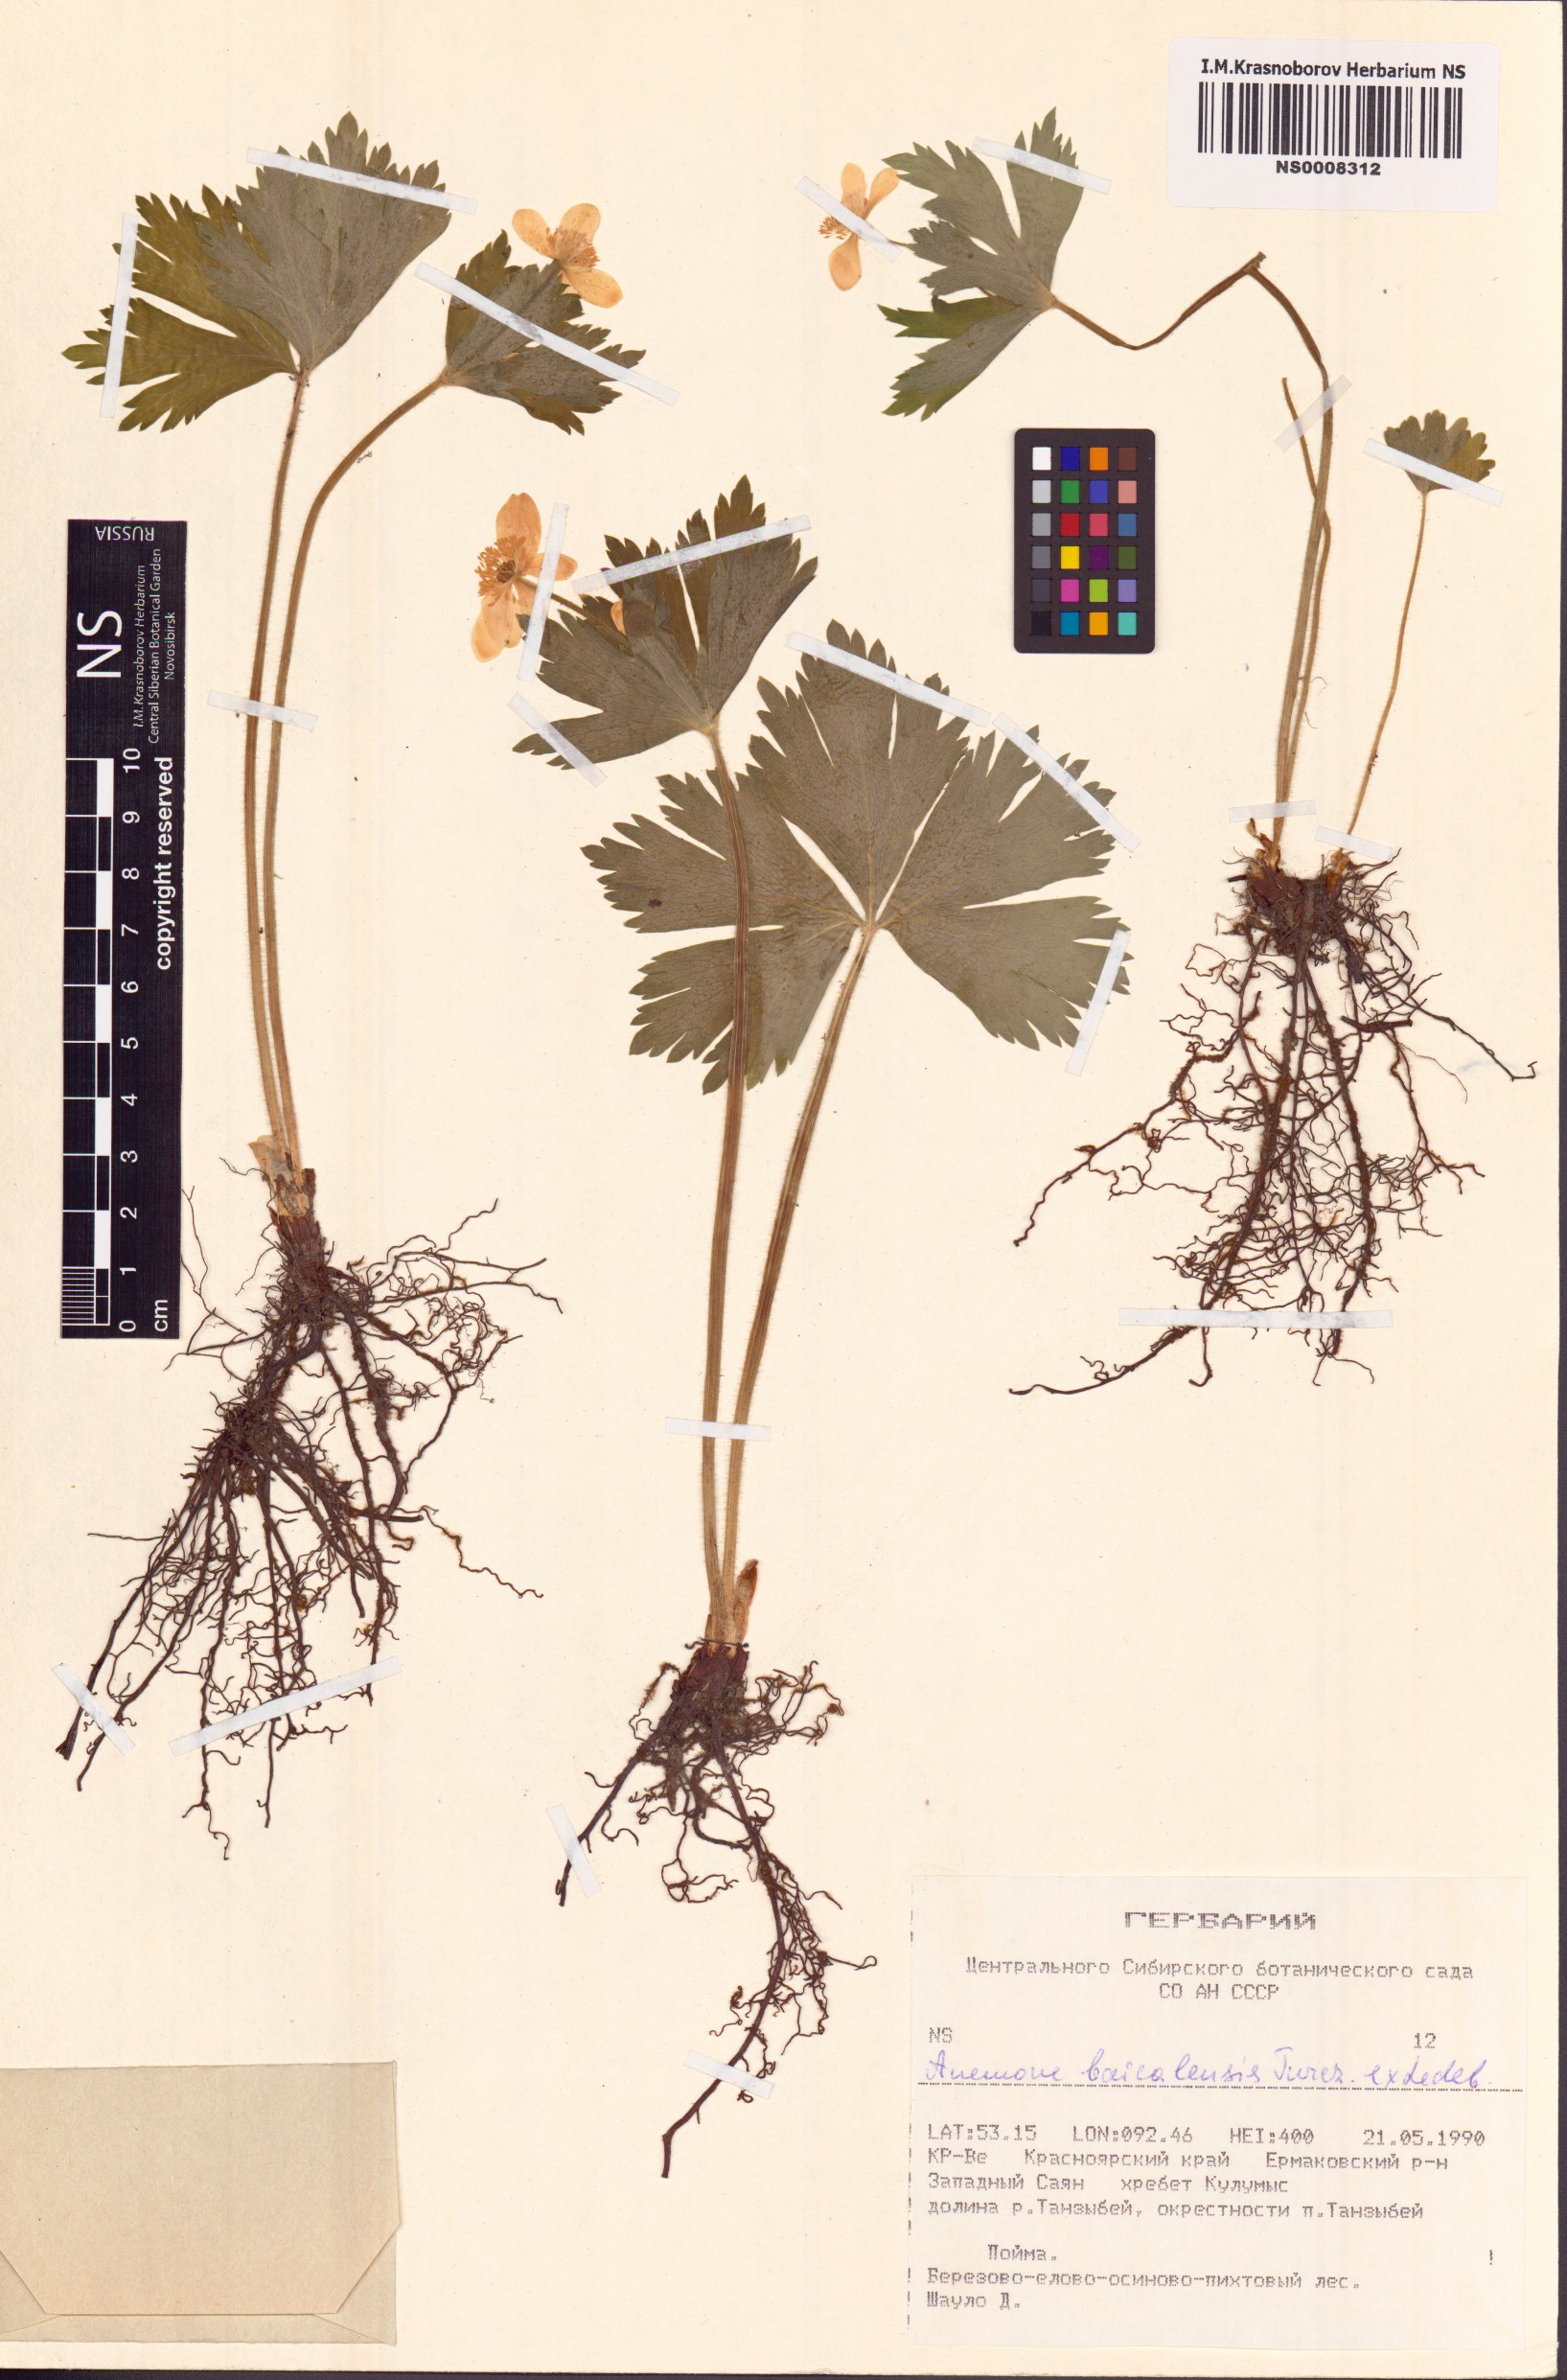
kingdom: Plantae
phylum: Tracheophyta
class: Magnoliopsida
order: Ranunculales
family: Ranunculaceae
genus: Anemonastrum
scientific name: Anemonastrum baicalense
